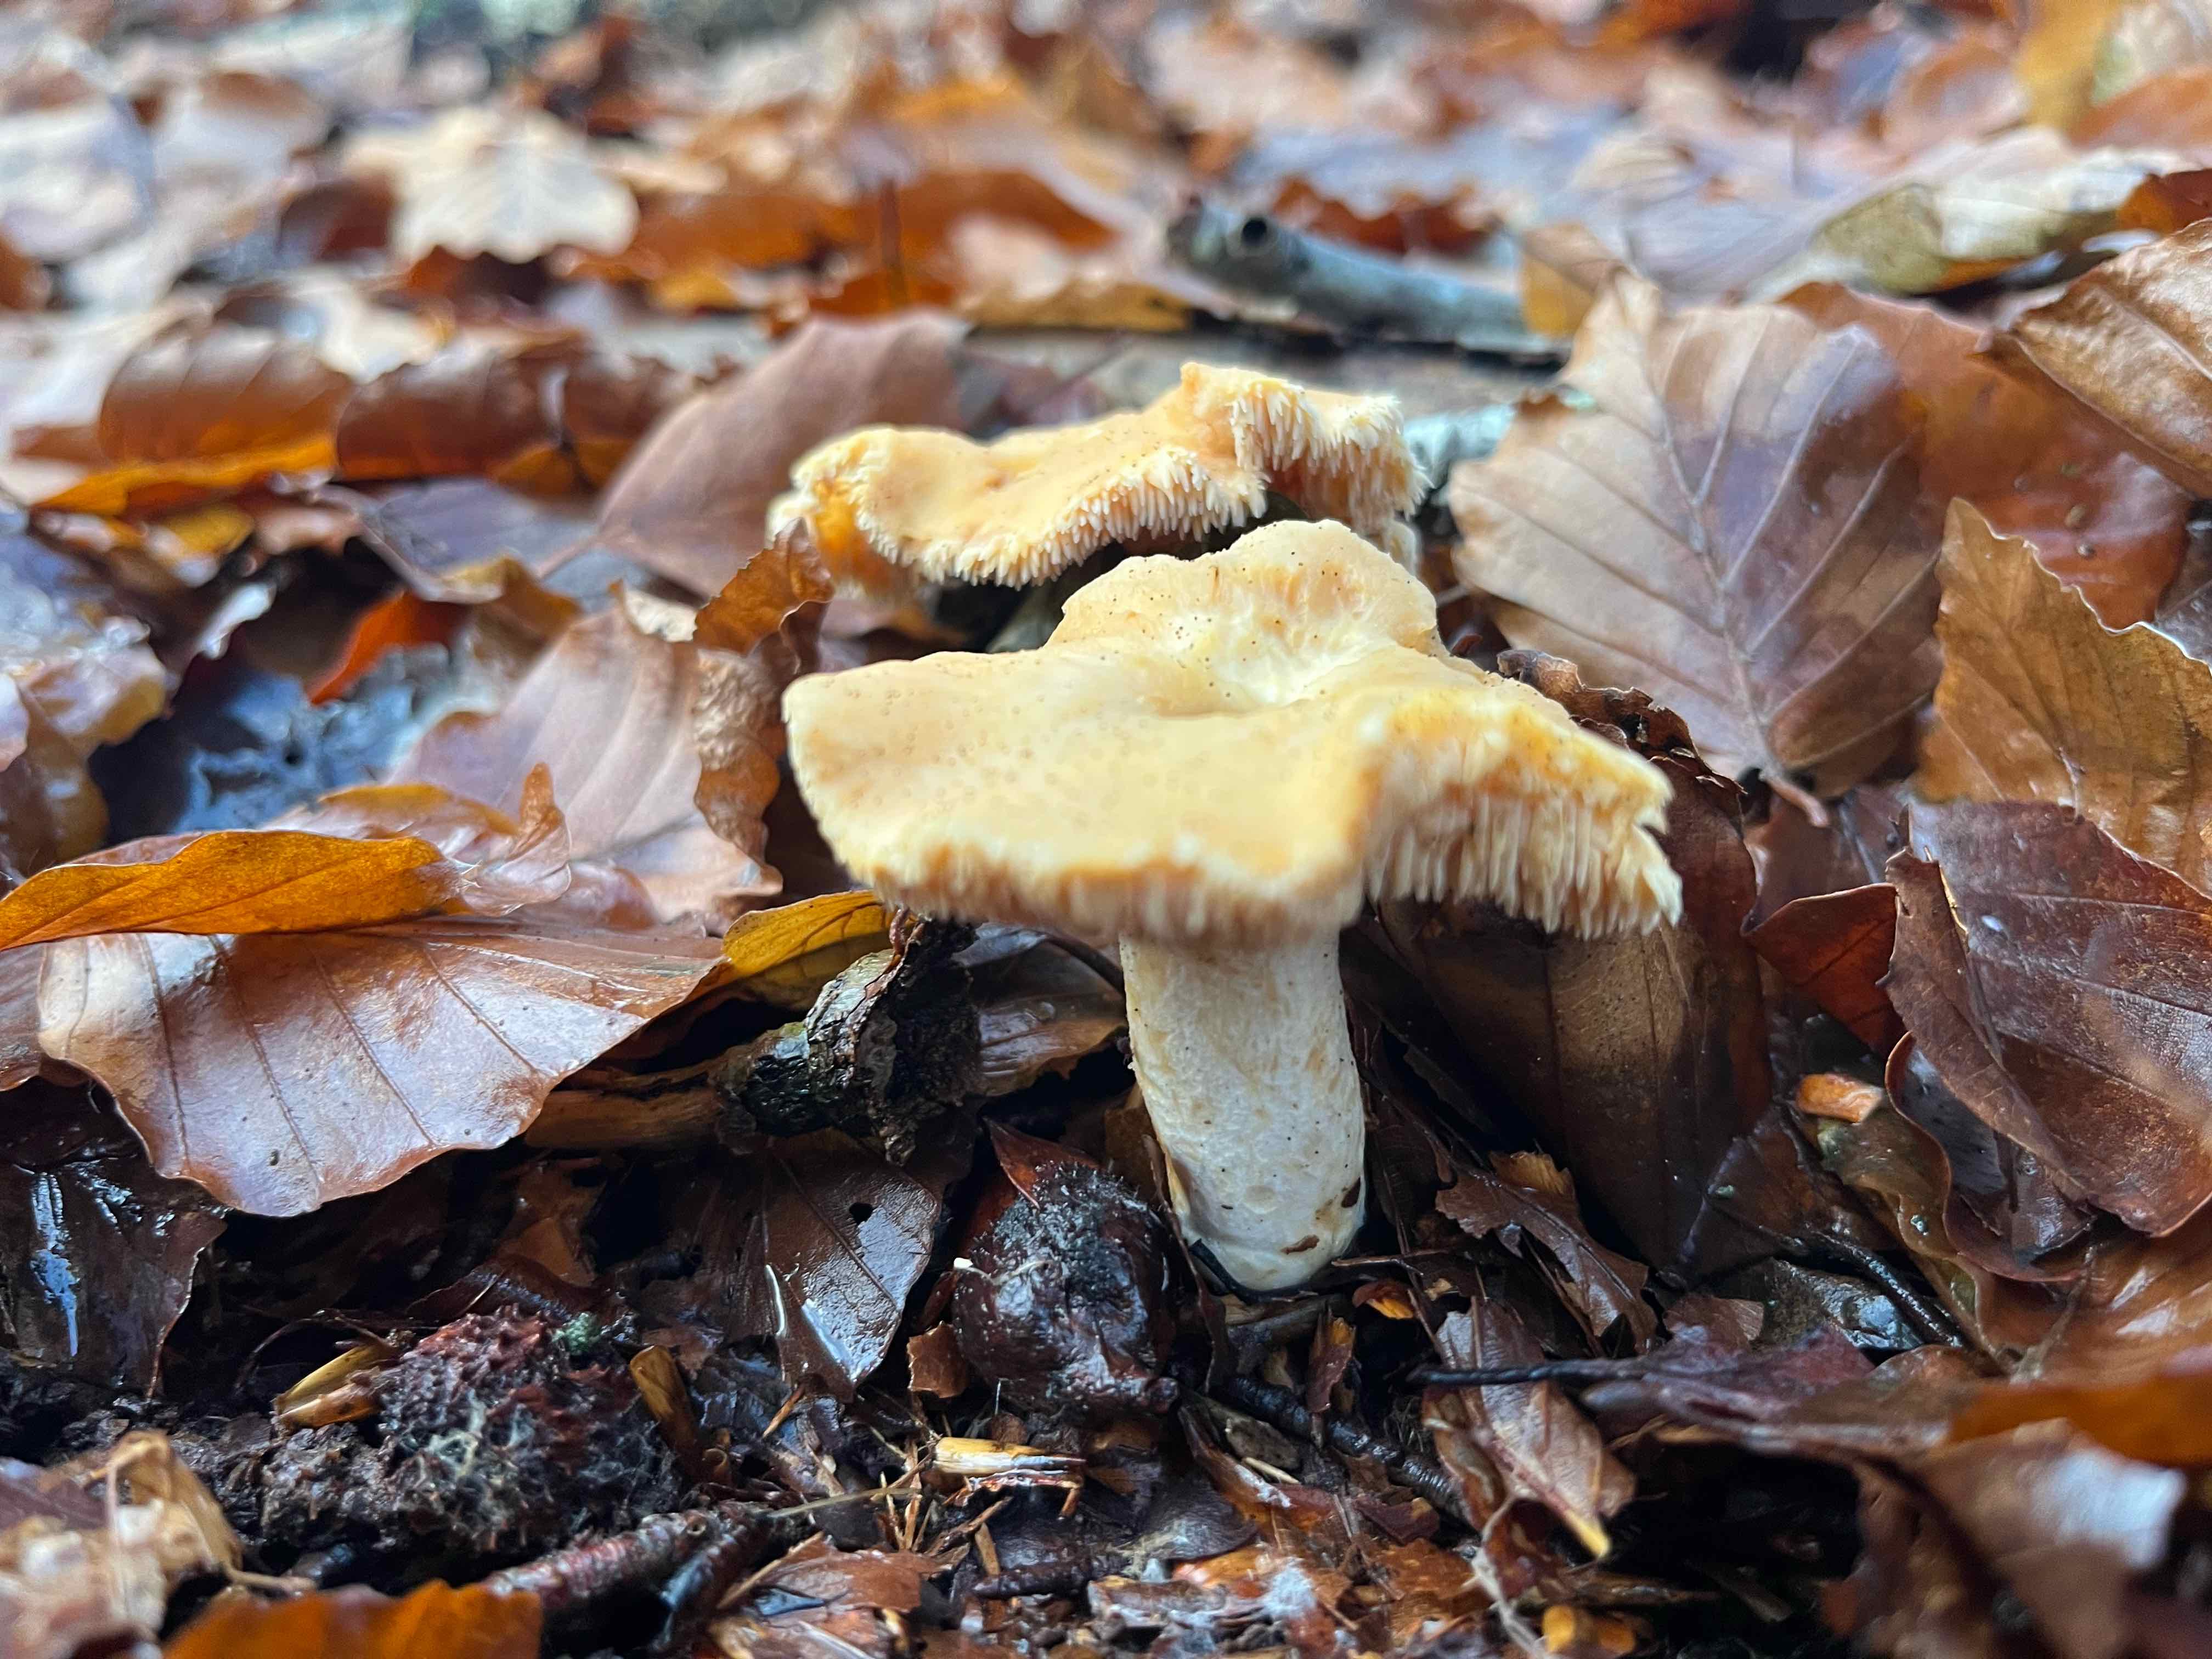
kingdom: Fungi
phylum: Basidiomycota
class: Agaricomycetes
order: Cantharellales
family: Hydnaceae
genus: Hydnum
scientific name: Hydnum umbilicatum
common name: navle-pigsvamp
